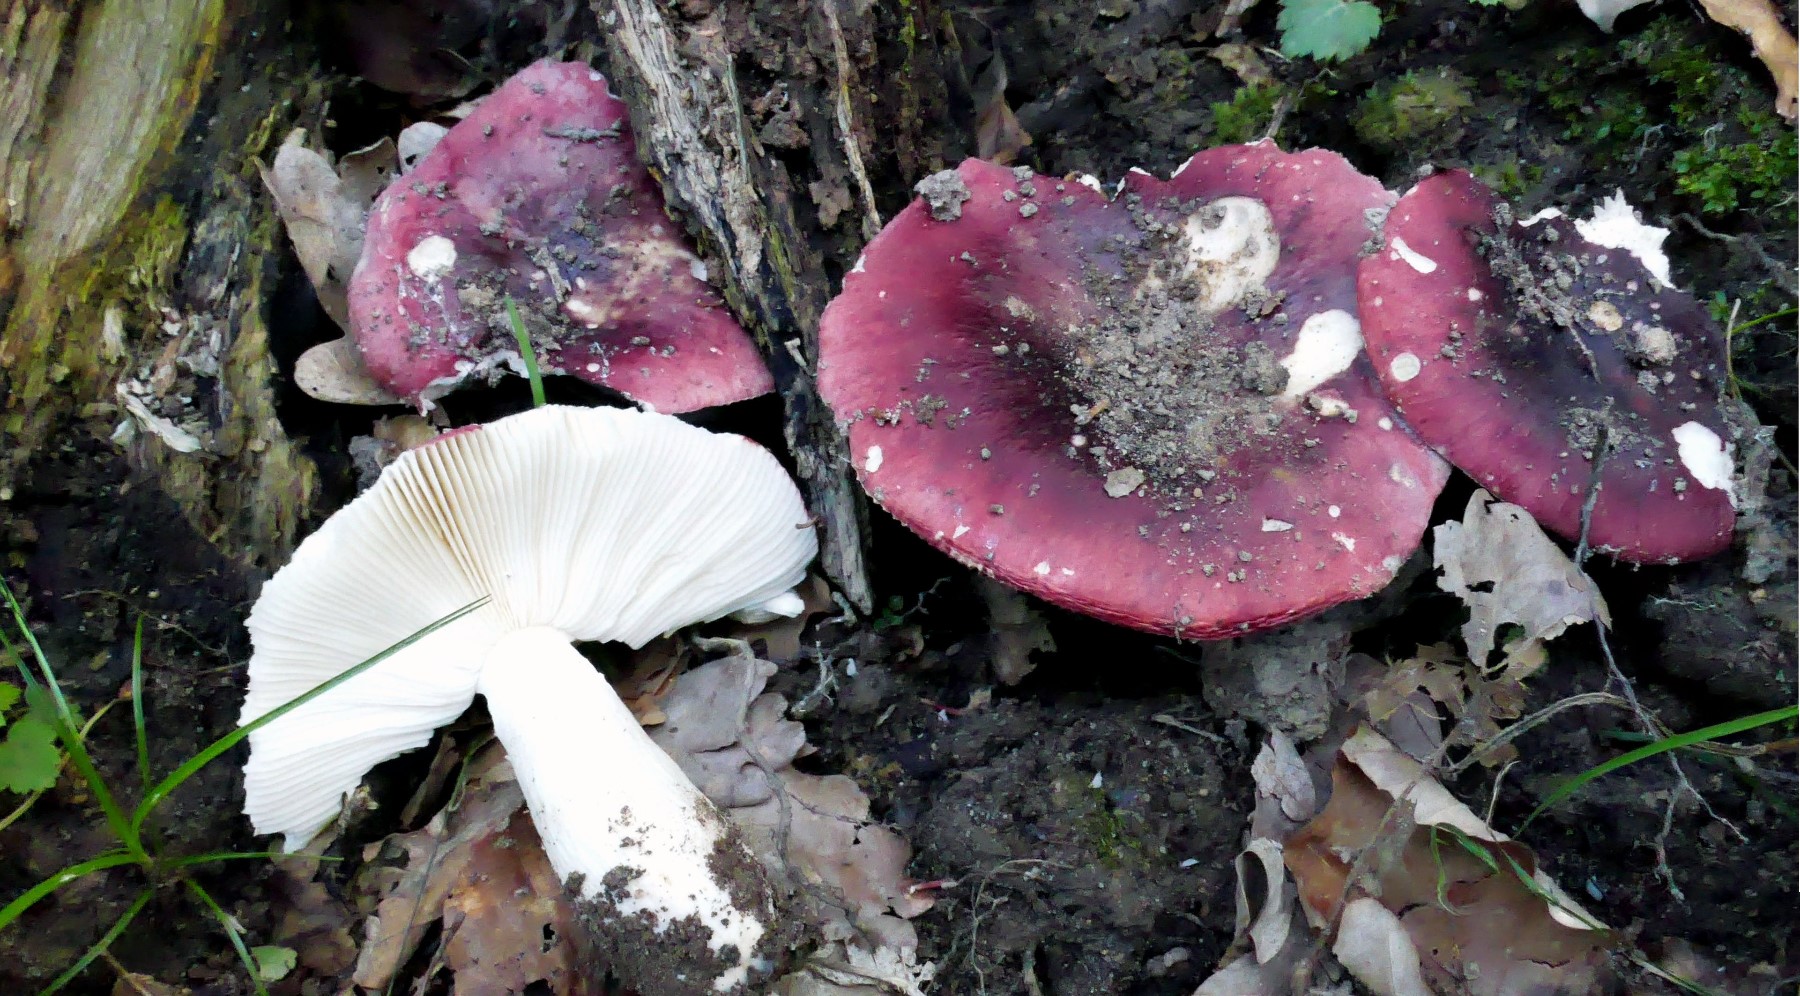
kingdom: Fungi
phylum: Basidiomycota
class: Agaricomycetes
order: Russulales
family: Russulaceae
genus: Russula
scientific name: Russula atropurpurea
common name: purpurbroget skørhat
